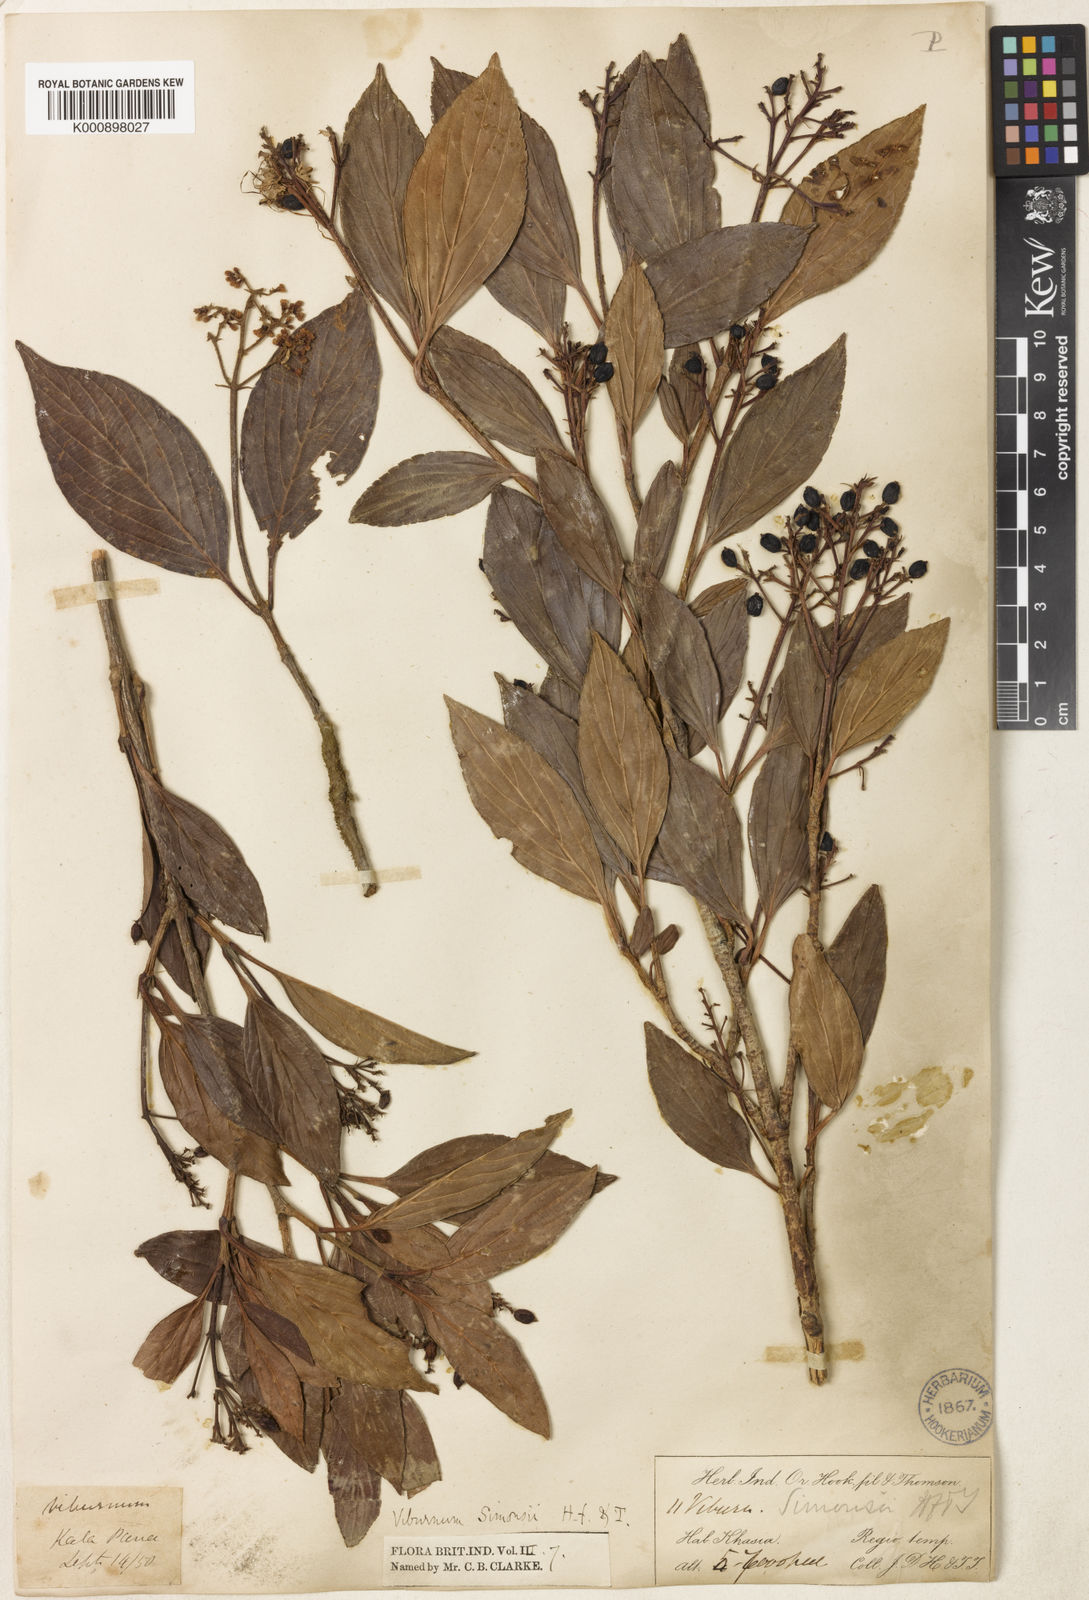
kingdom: Plantae
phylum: Tracheophyta
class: Magnoliopsida
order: Dipsacales
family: Viburnaceae
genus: Viburnum
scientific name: Viburnum simonsii
